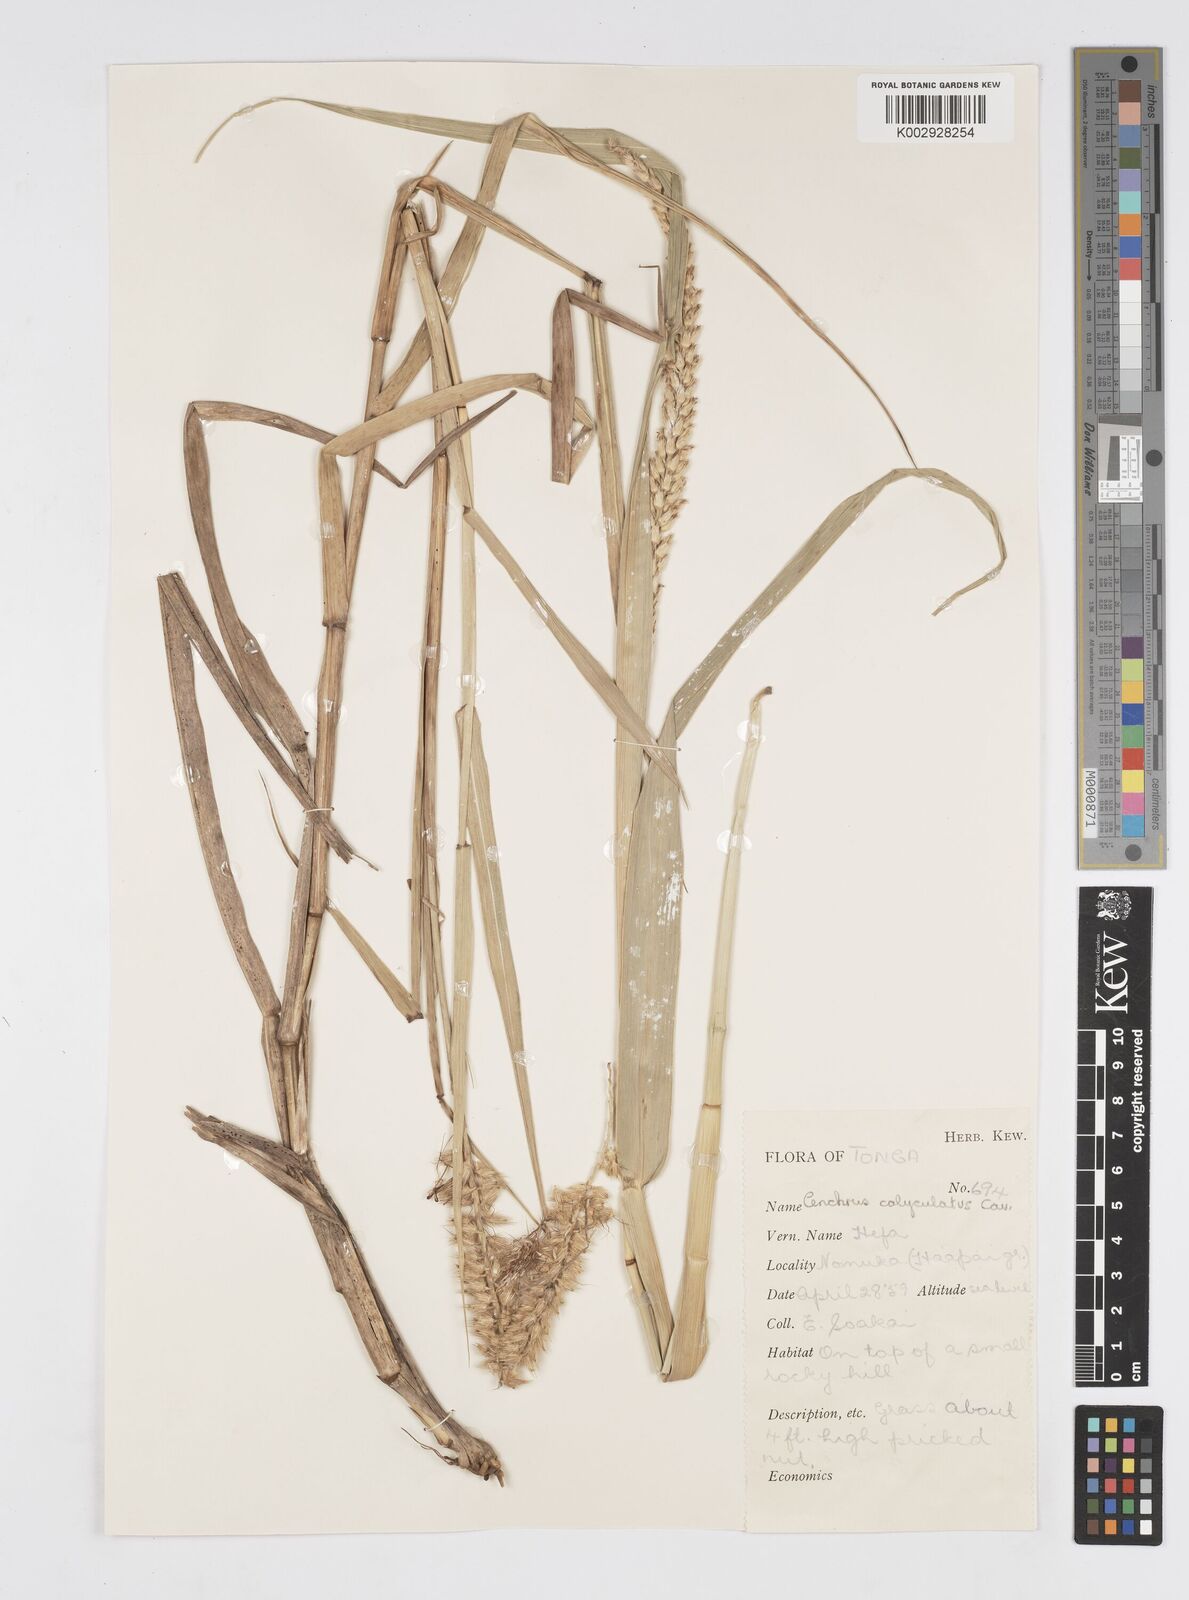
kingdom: Plantae
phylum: Tracheophyta
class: Liliopsida
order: Poales
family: Poaceae
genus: Cenchrus
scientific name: Cenchrus caliculatus
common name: Large bur grass
